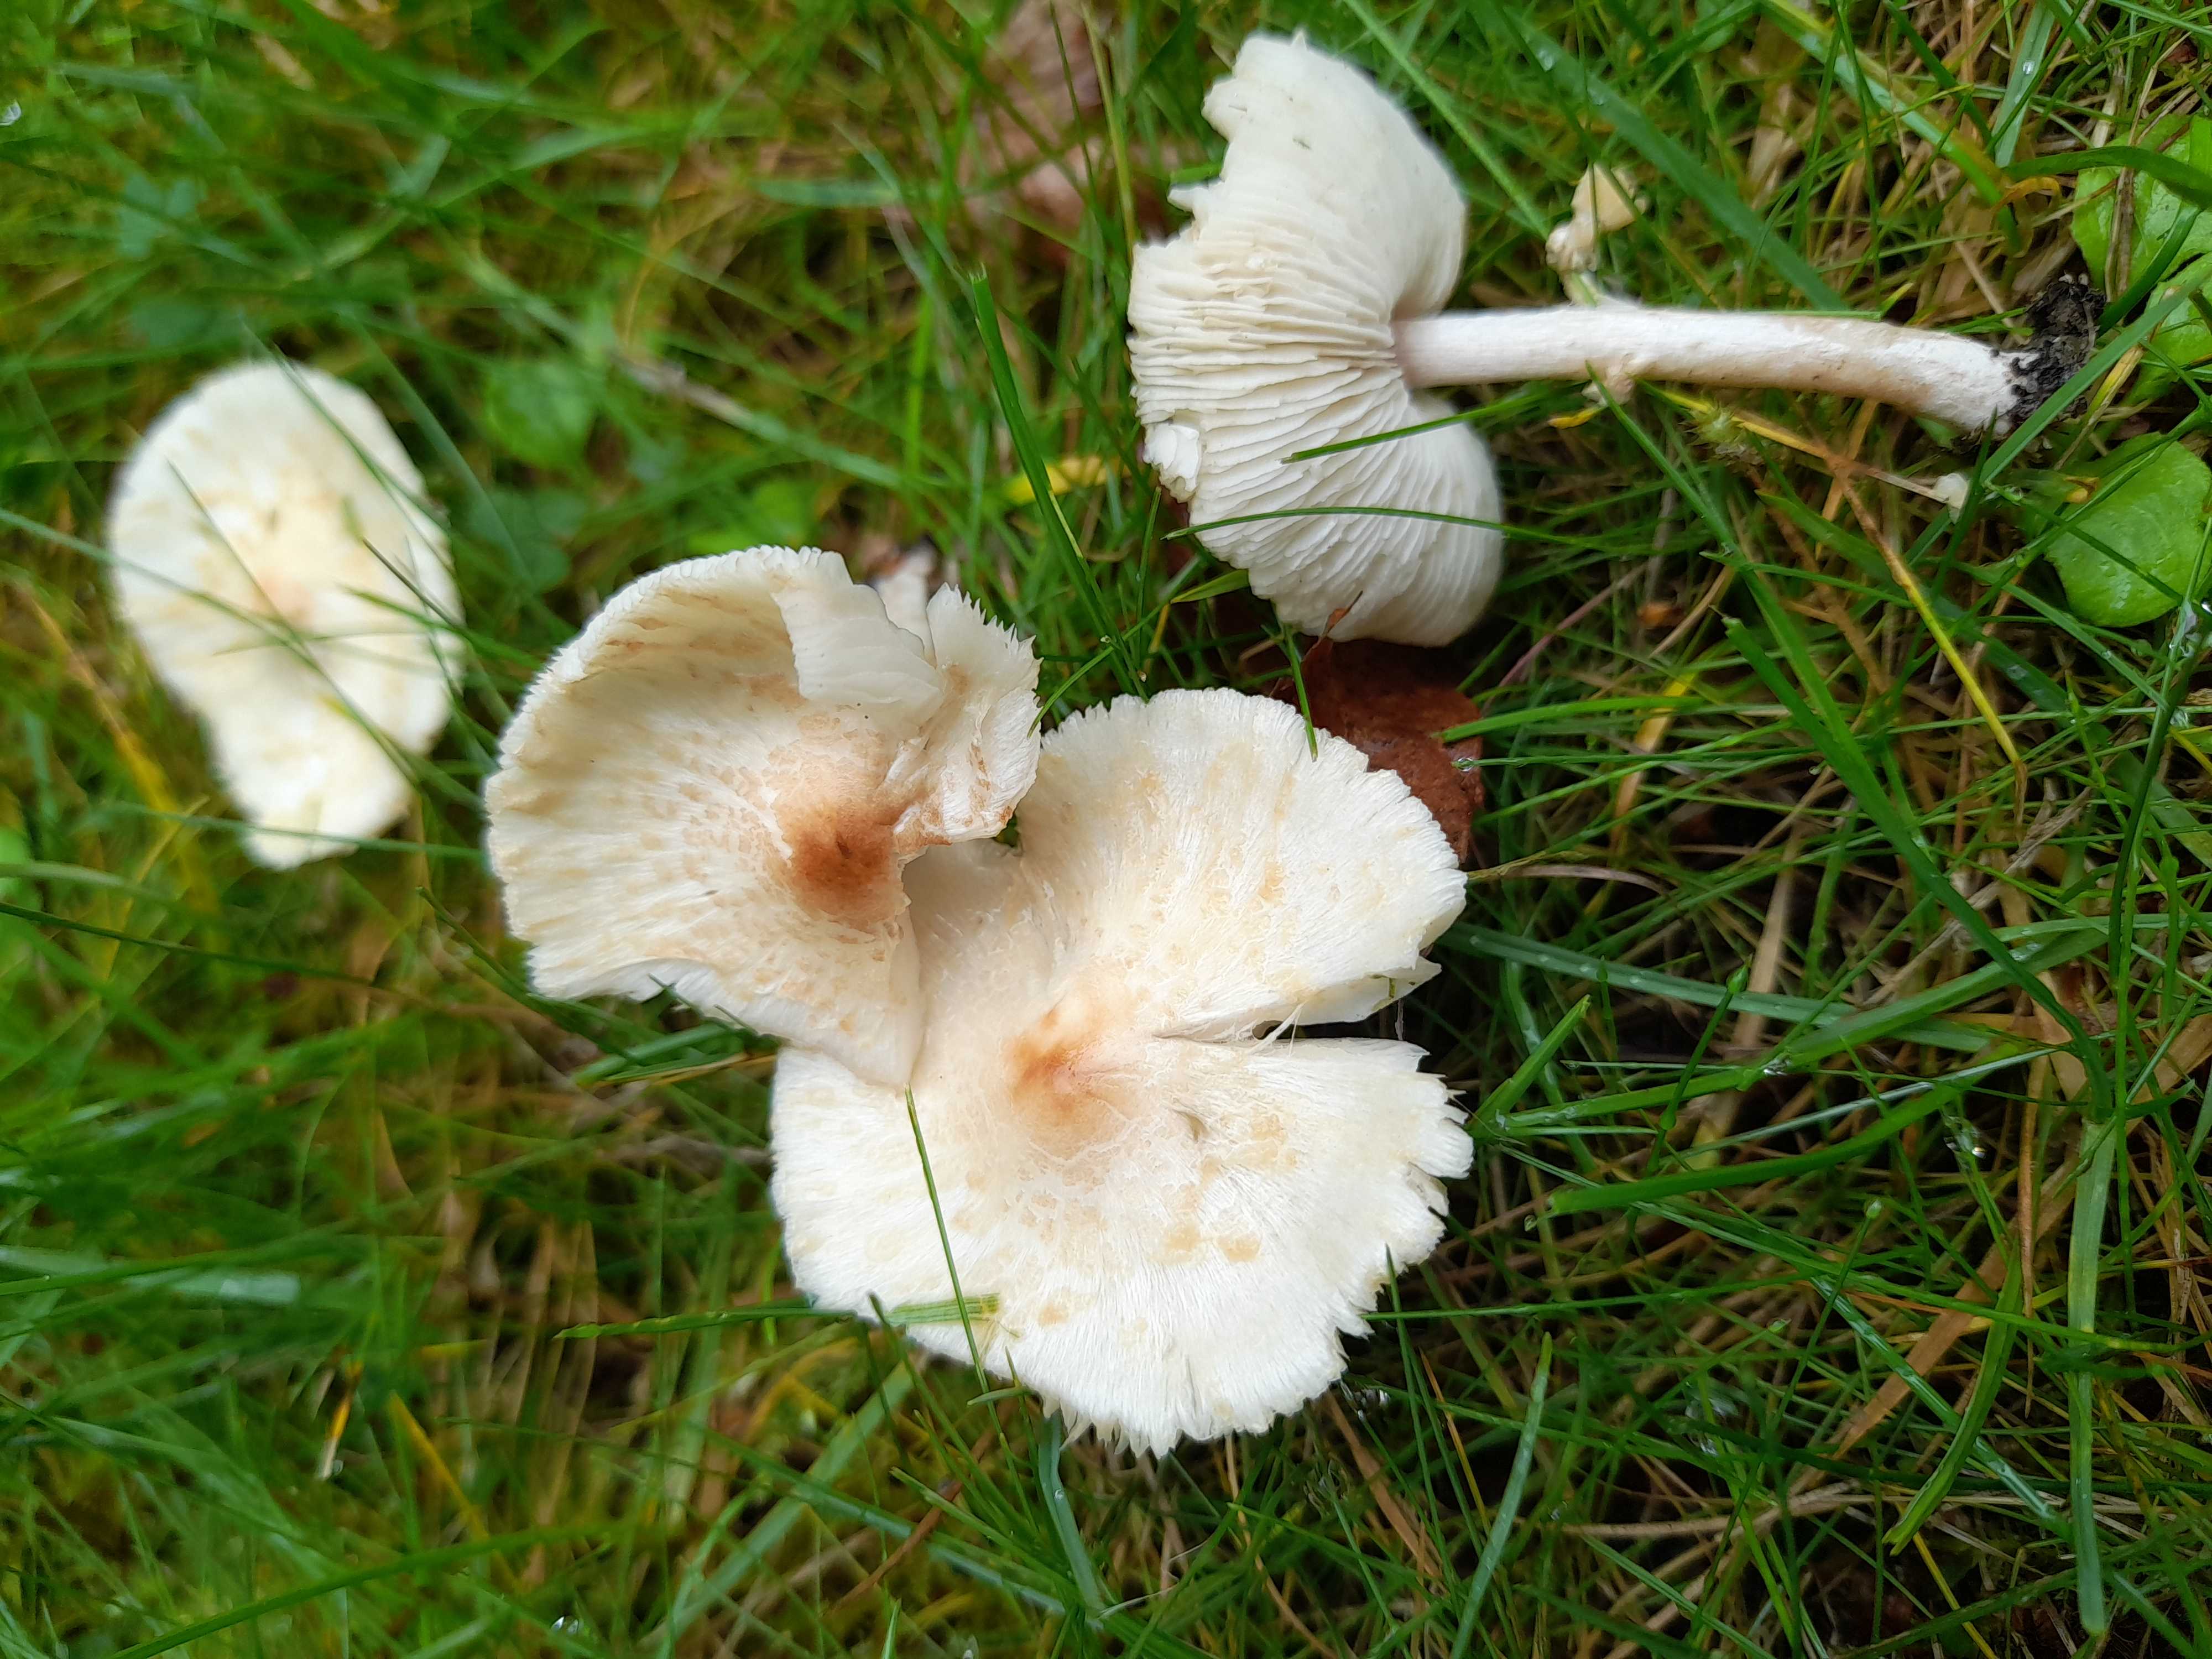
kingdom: Fungi
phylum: Basidiomycota
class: Agaricomycetes
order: Agaricales
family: Agaricaceae
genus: Lepiota
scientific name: Lepiota cristata
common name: stinkende parasolhat
